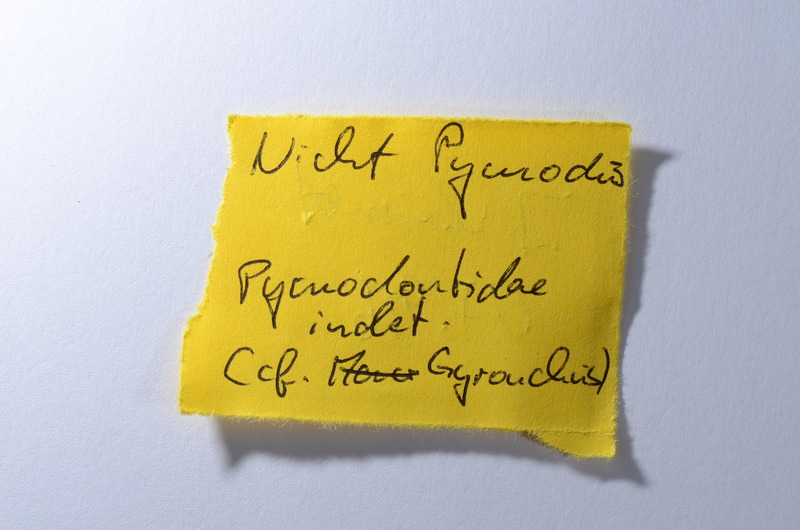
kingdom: Animalia
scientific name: Animalia
